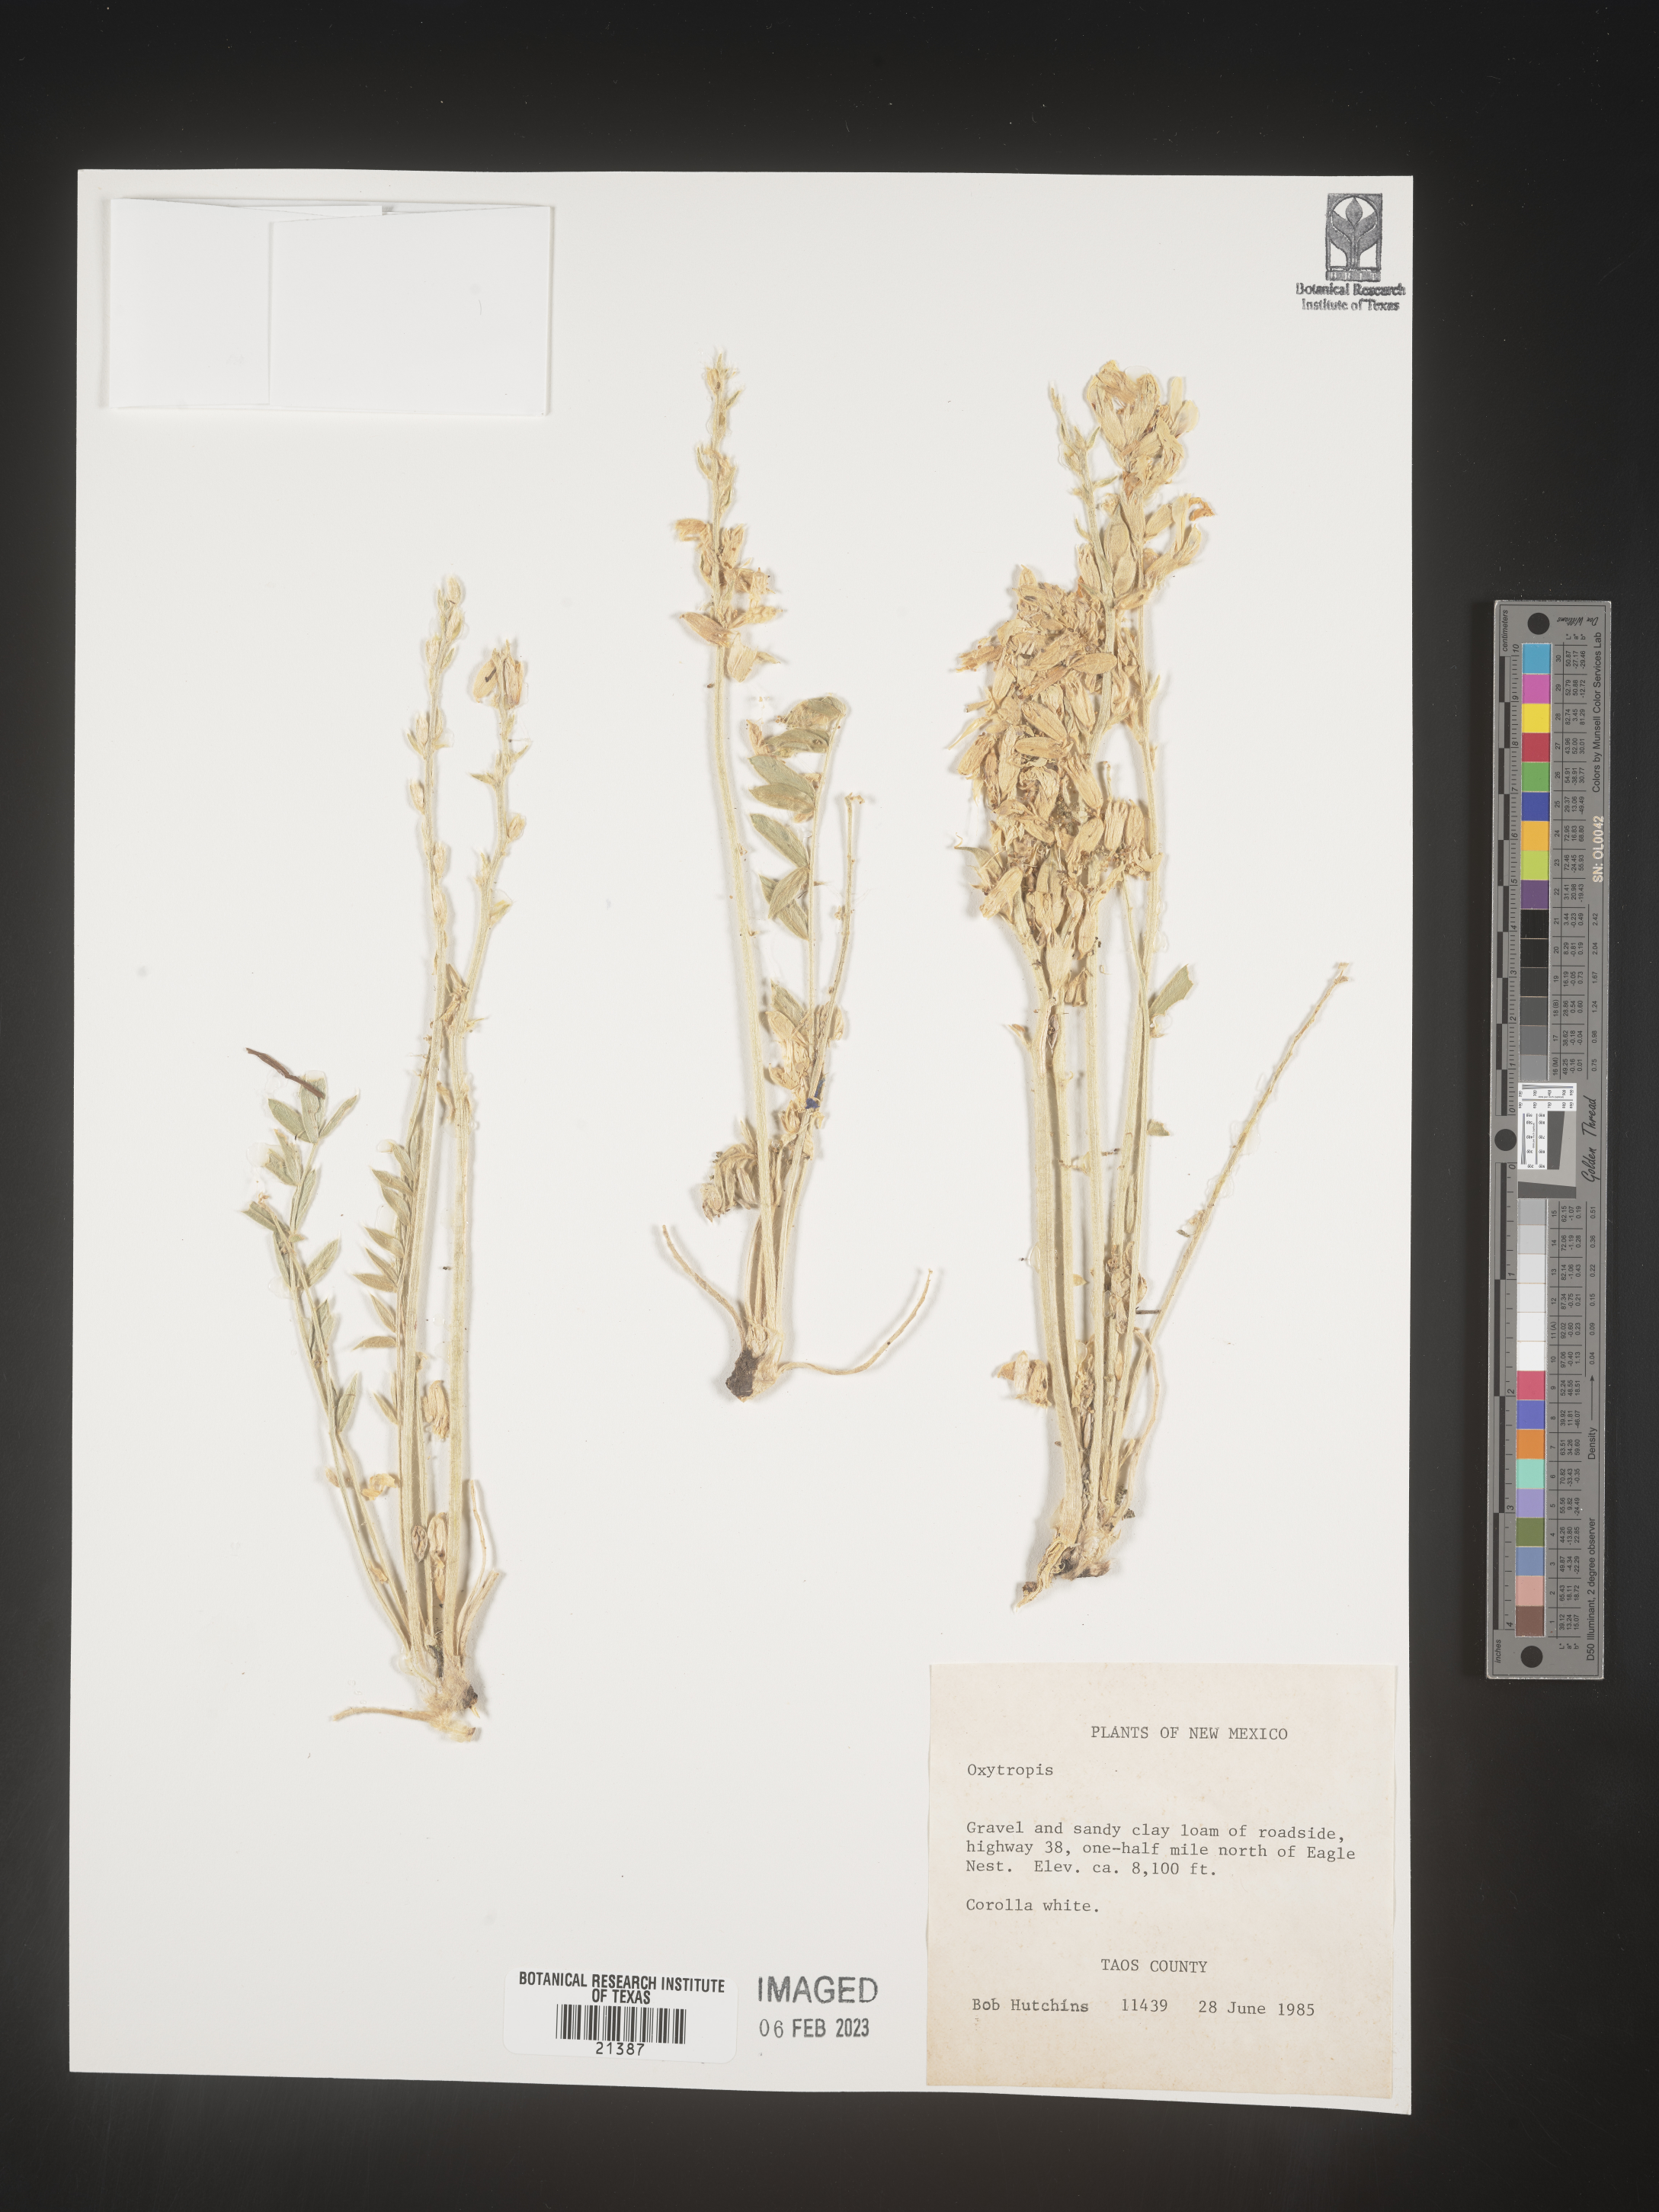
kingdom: Plantae
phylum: Tracheophyta
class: Magnoliopsida
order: Fabales
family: Fabaceae
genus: Oxytropis
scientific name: Oxytropis
